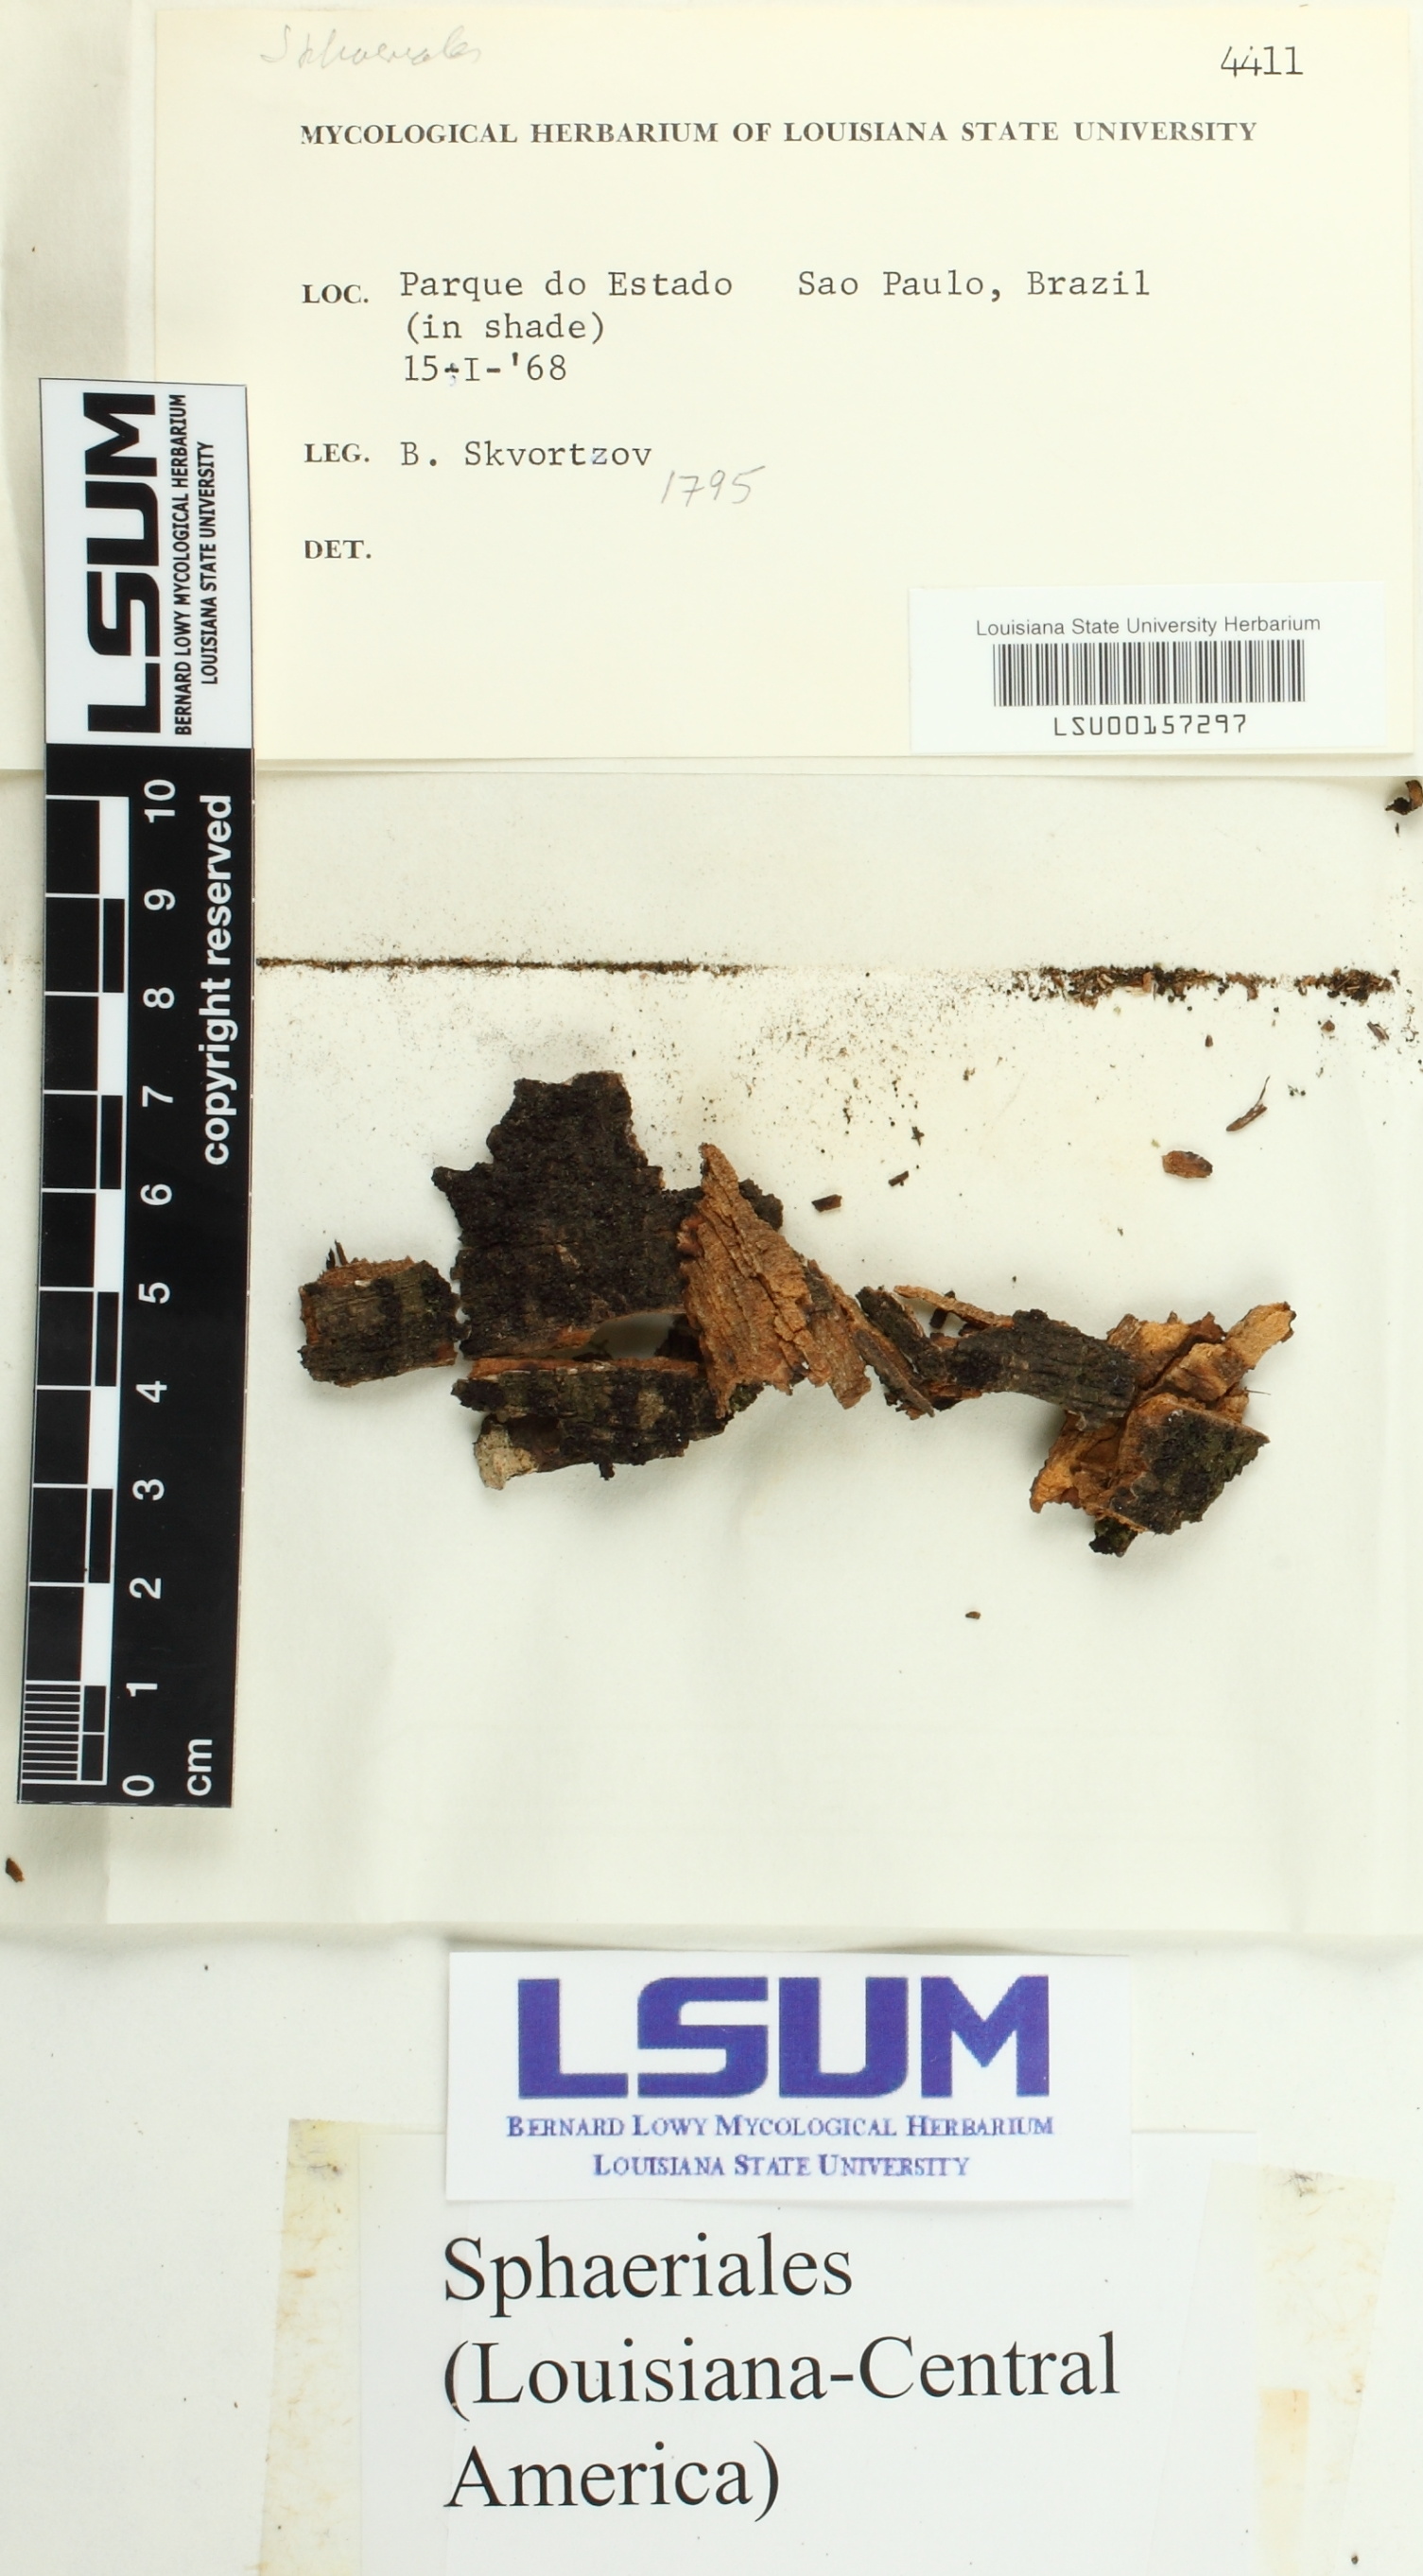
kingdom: Fungi
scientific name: Fungi
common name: Fungi
